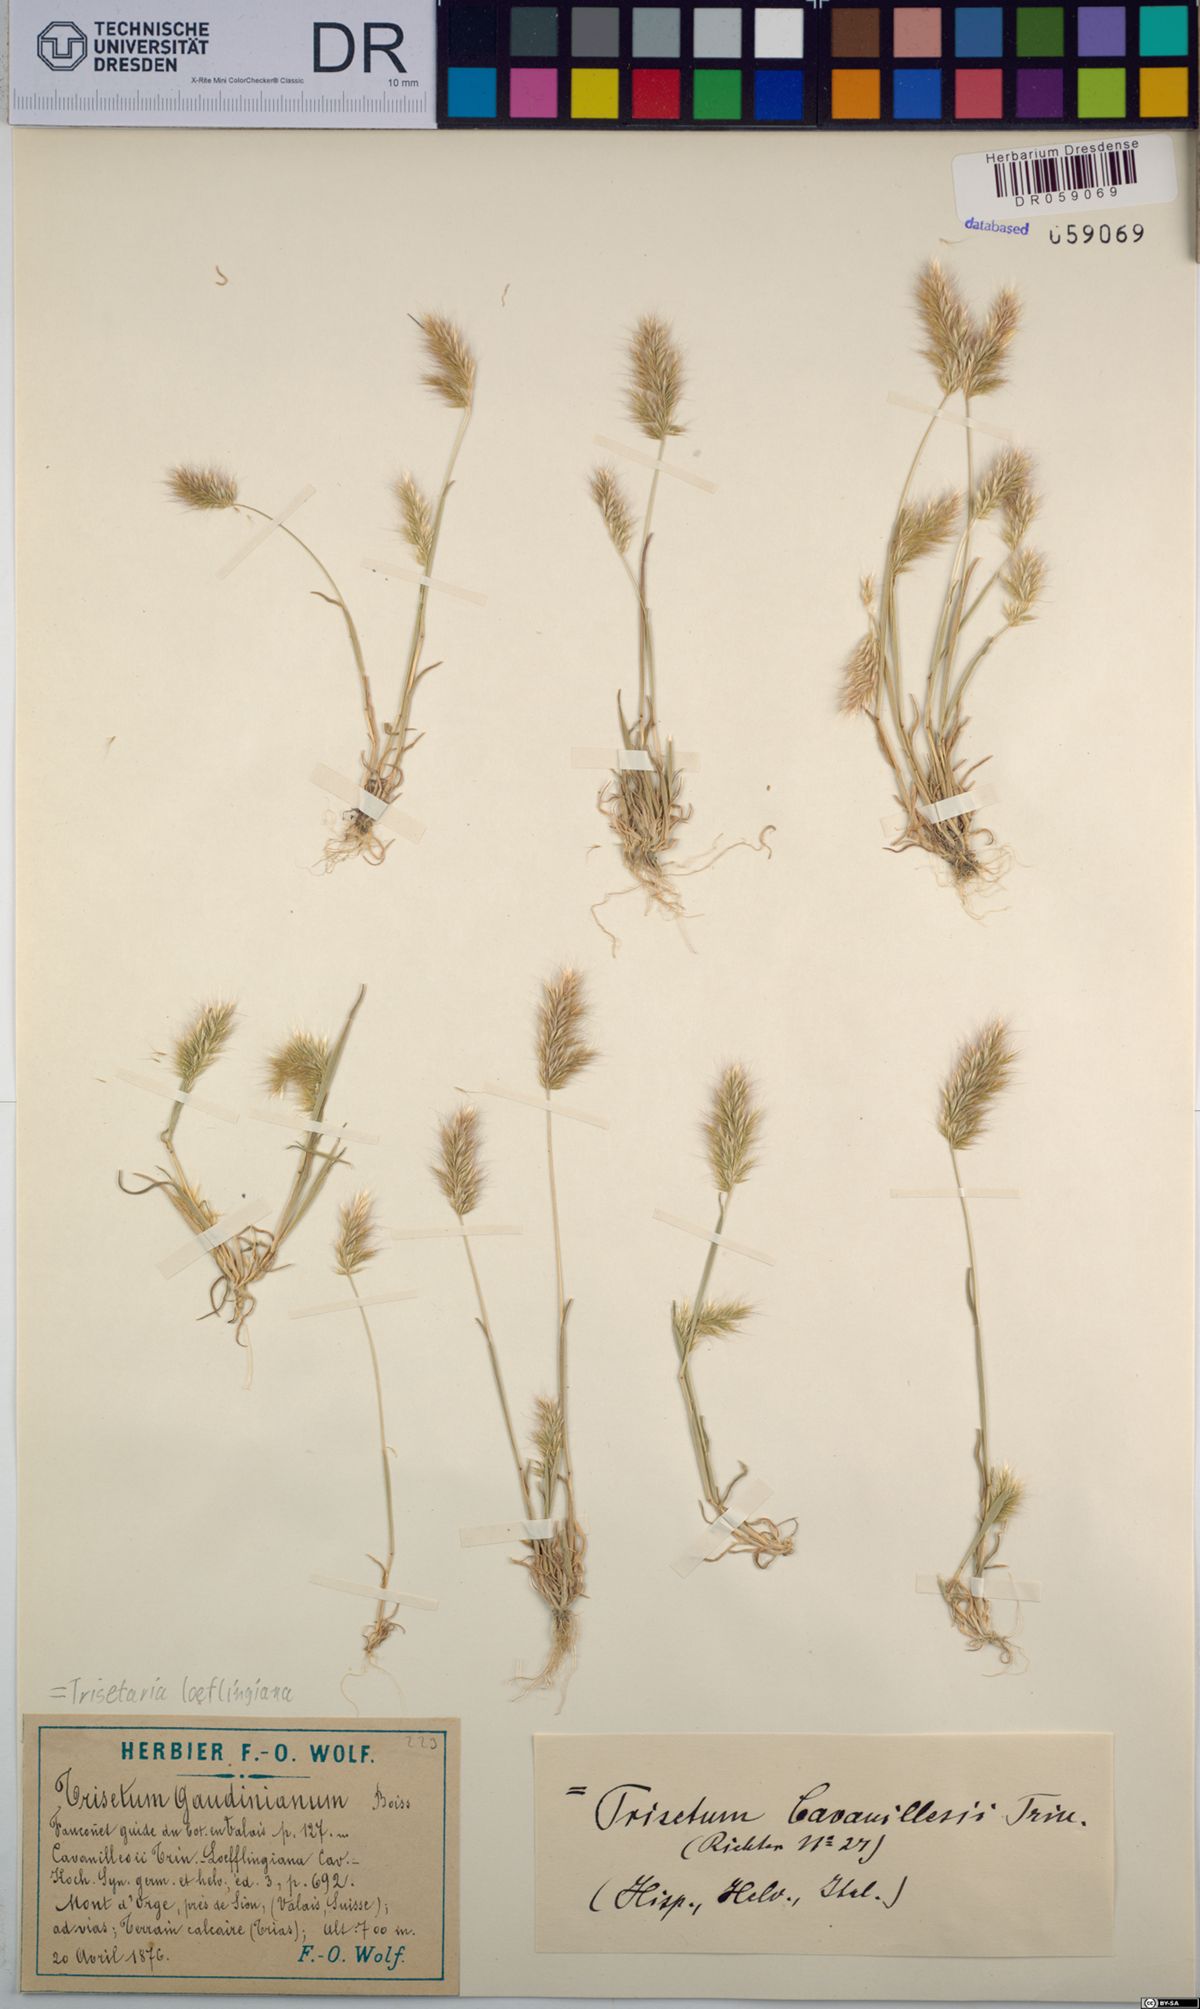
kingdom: Plantae
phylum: Tracheophyta
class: Liliopsida
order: Poales
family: Poaceae
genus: Trisetaria
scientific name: Trisetaria loeflingiana
